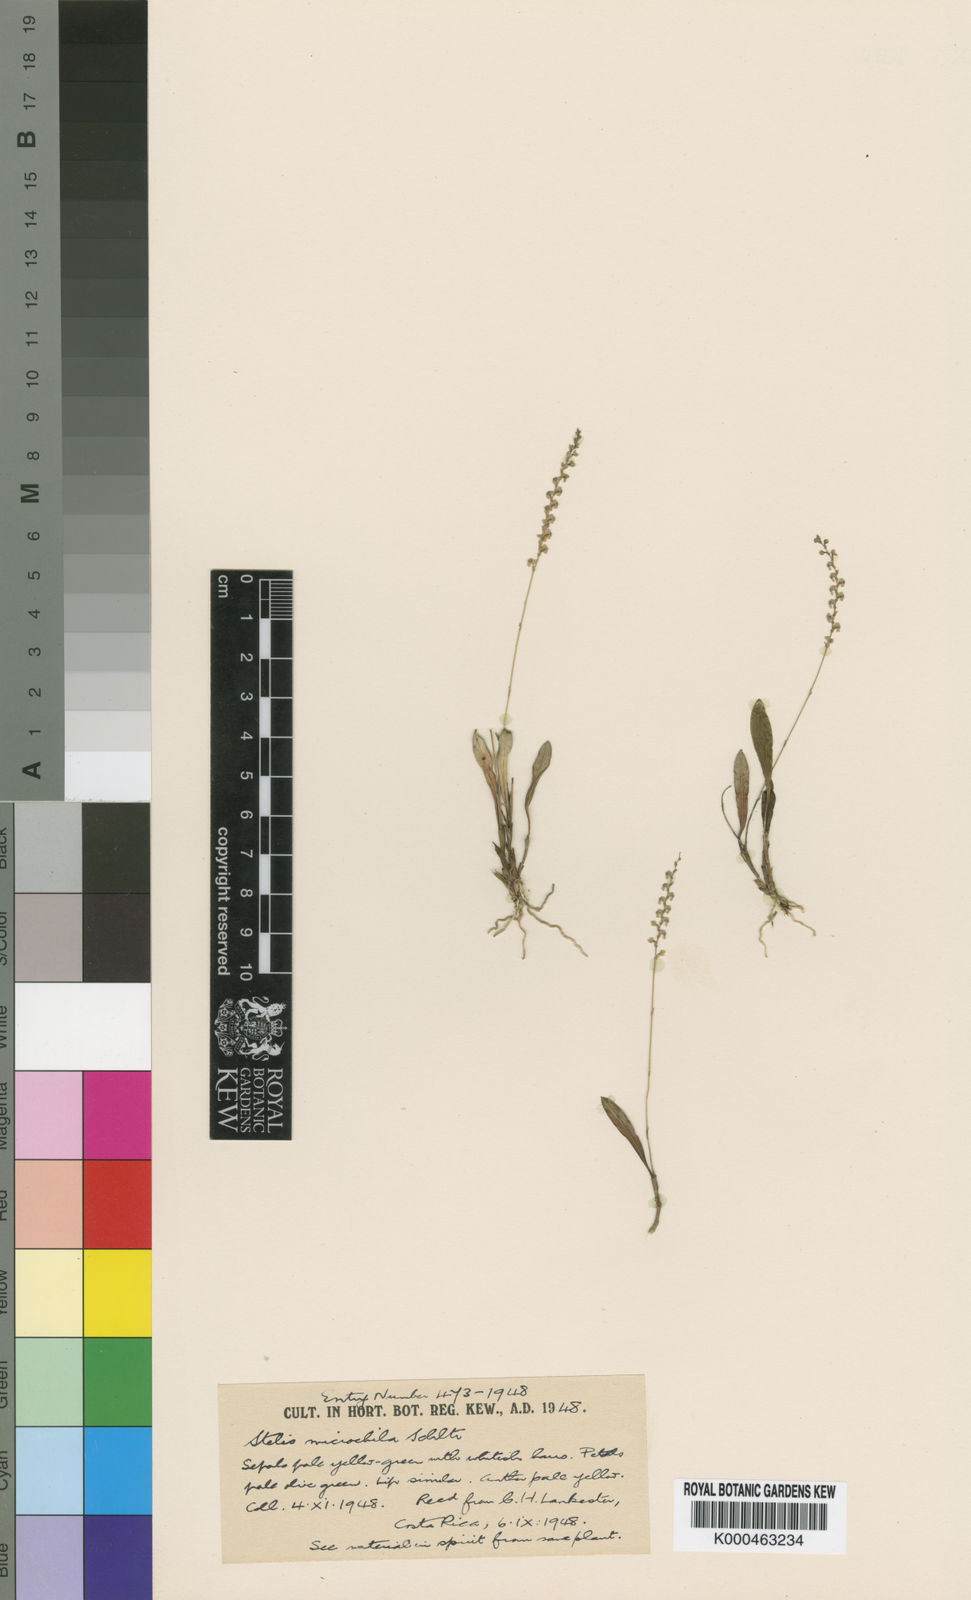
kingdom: Plantae
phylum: Tracheophyta
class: Liliopsida
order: Asparagales
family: Orchidaceae
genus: Stelis
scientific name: Stelis microchila
